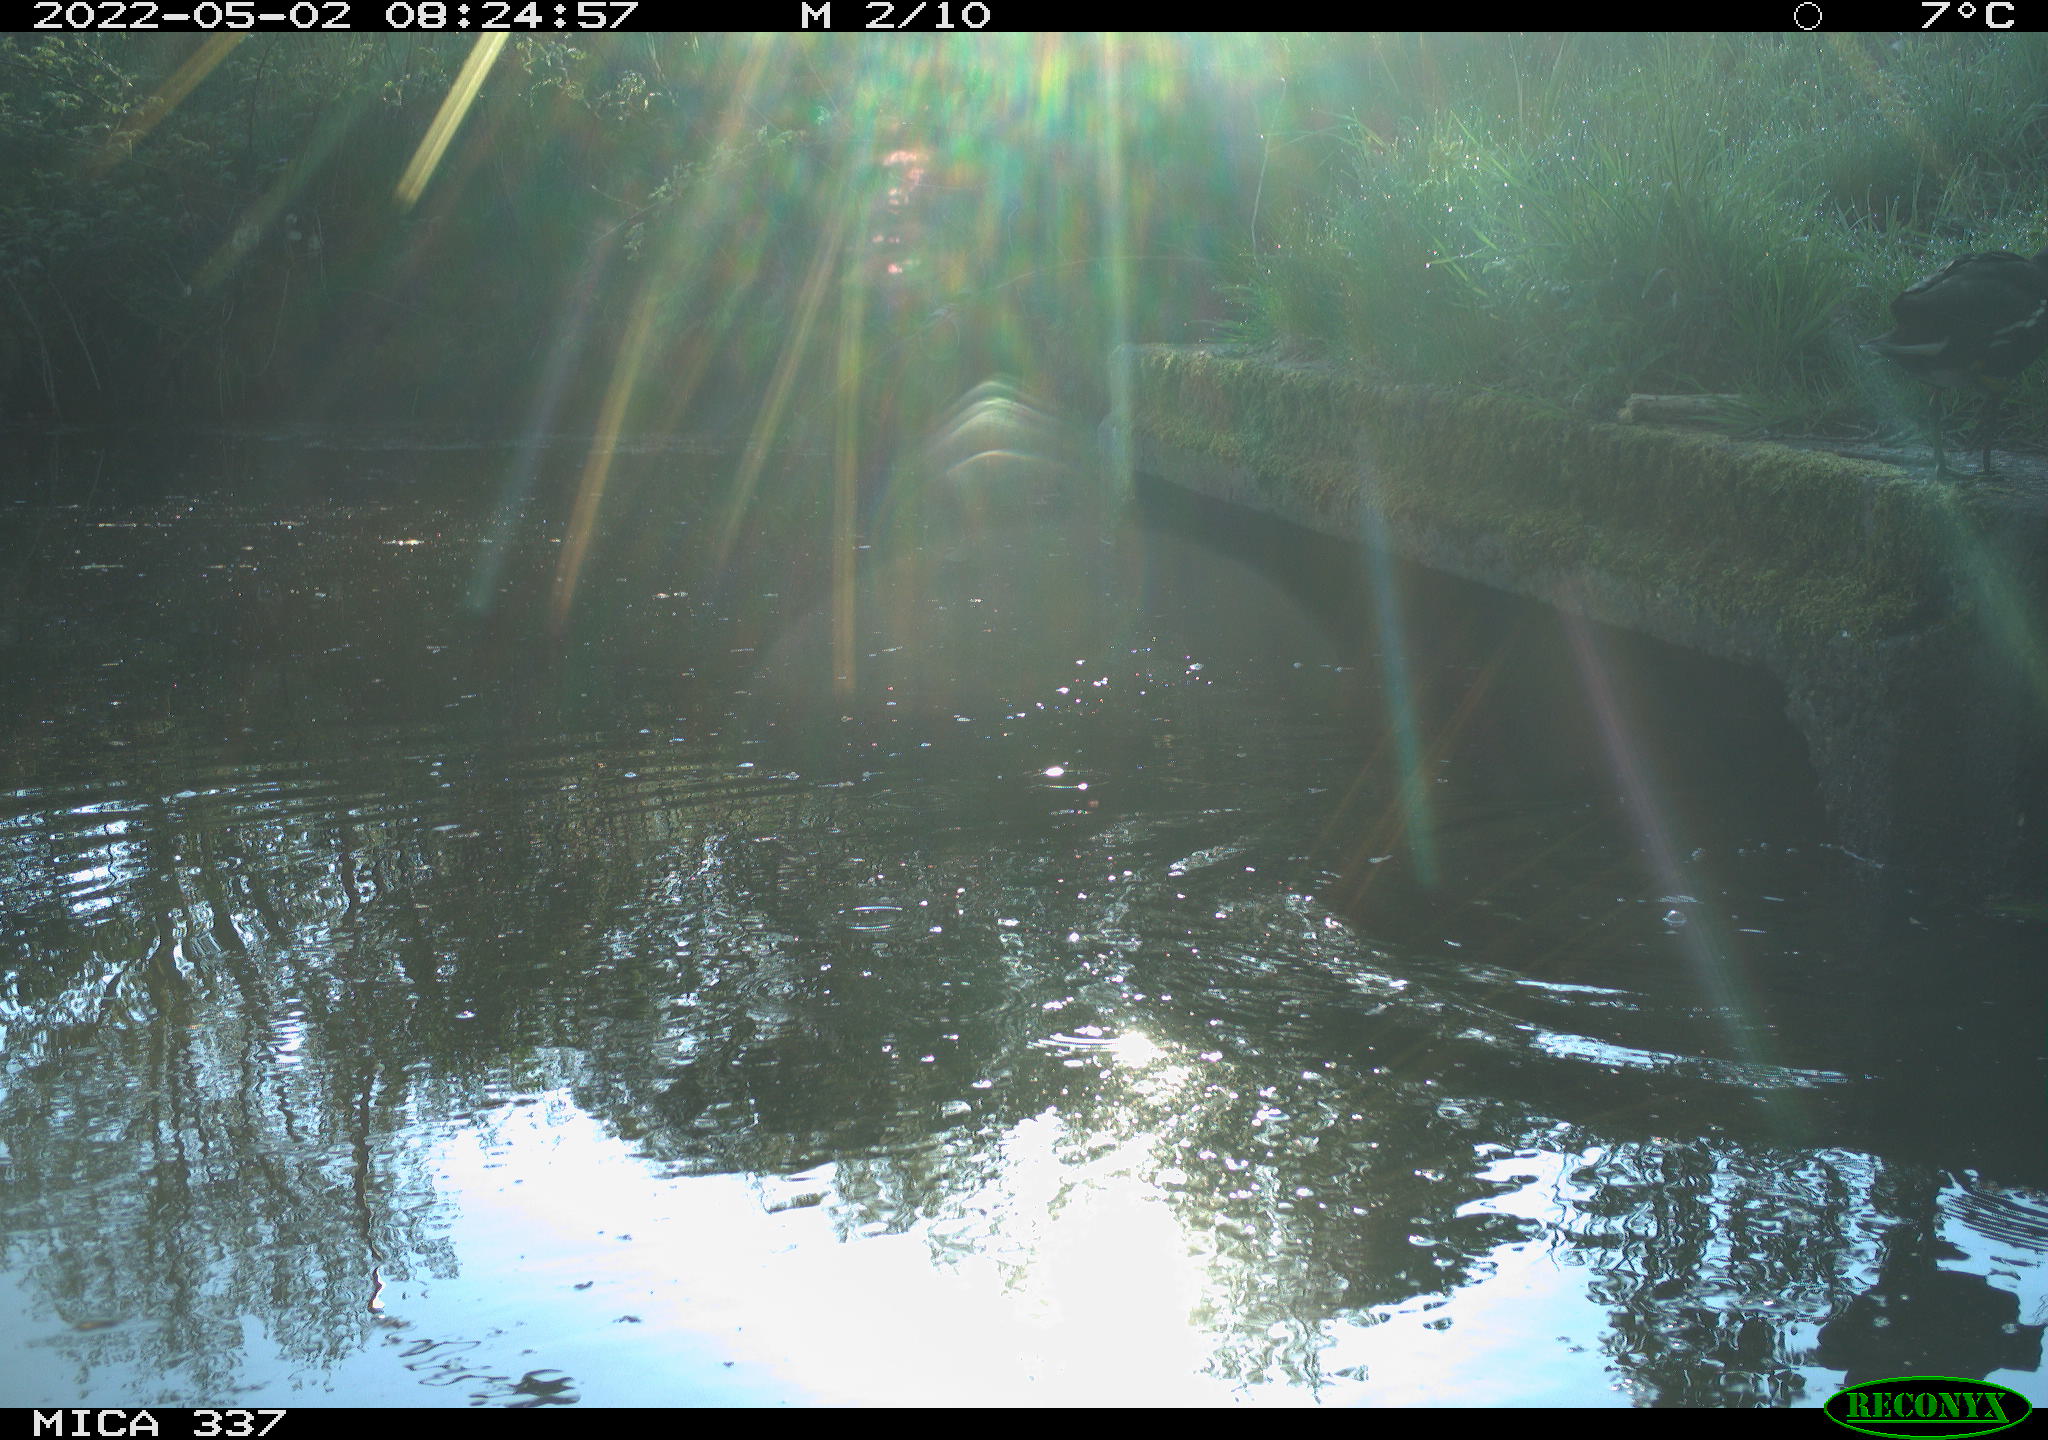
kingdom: Animalia
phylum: Chordata
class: Aves
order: Gruiformes
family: Rallidae
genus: Gallinula
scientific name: Gallinula chloropus
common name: Common moorhen
